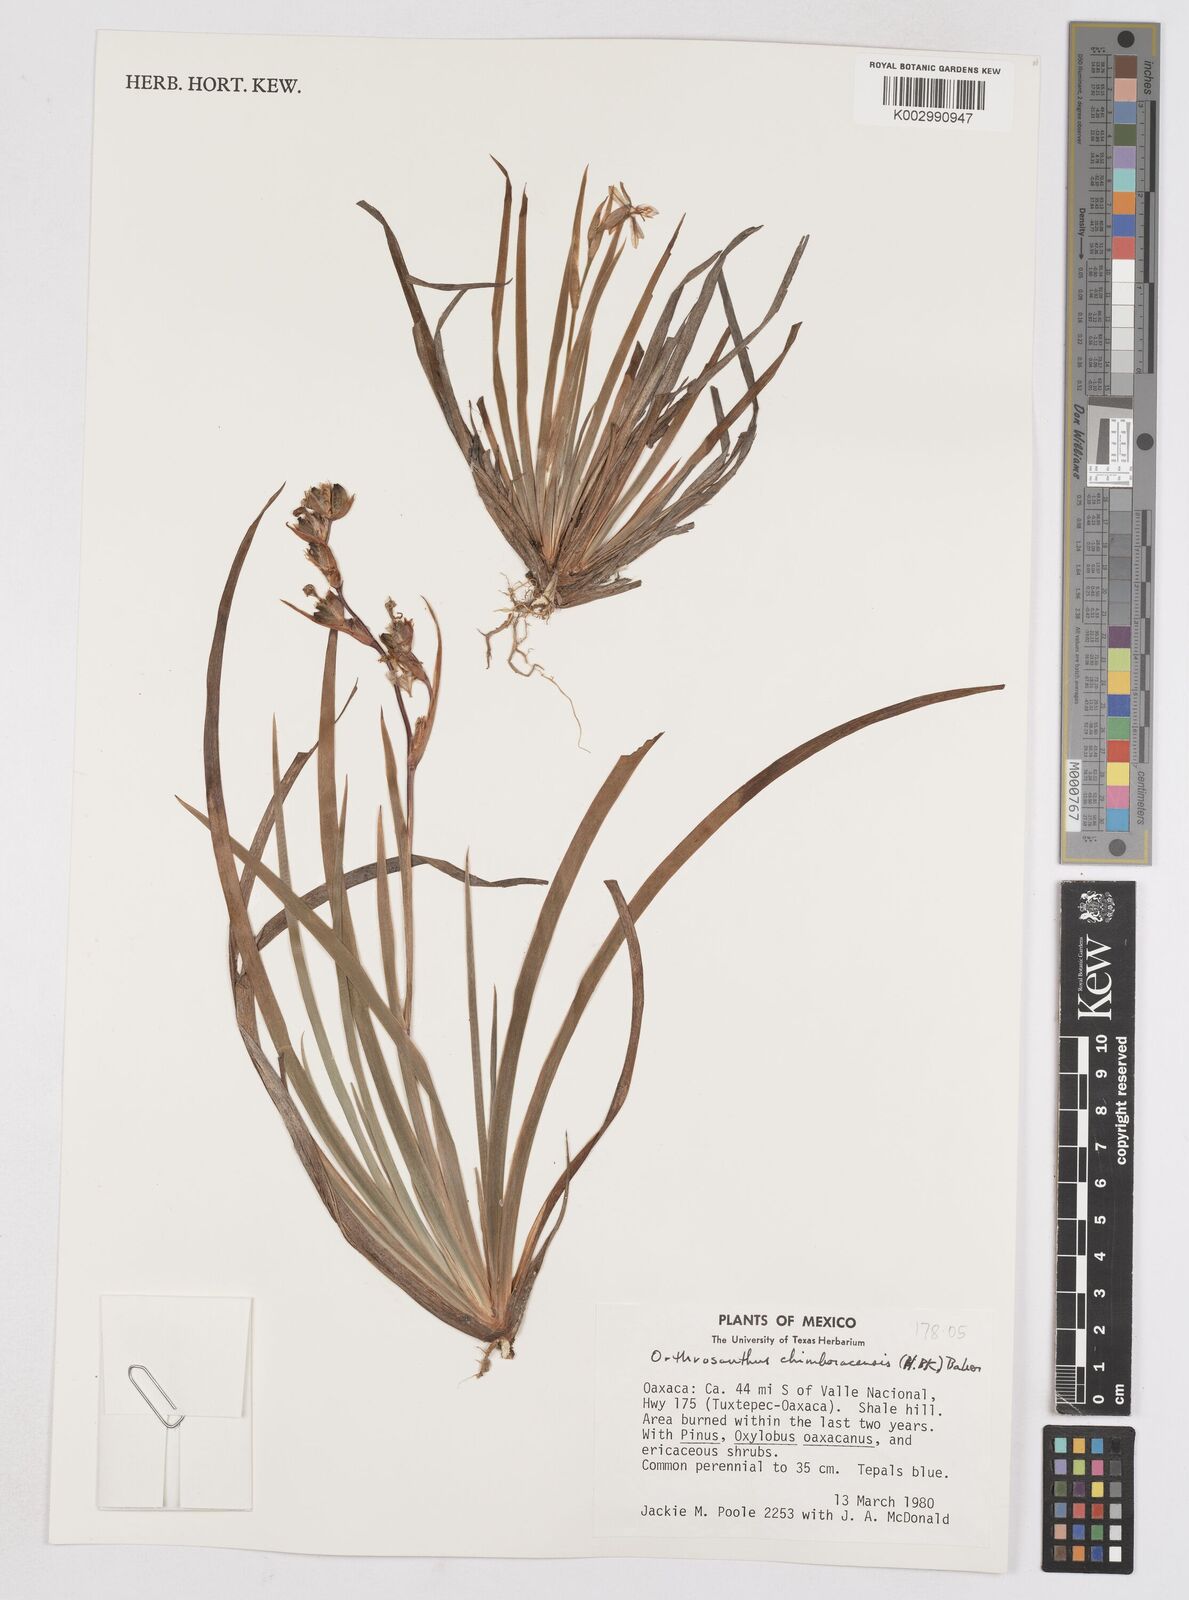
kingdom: Plantae
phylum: Tracheophyta
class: Liliopsida
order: Asparagales
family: Iridaceae
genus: Orthrosanthus
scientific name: Orthrosanthus chimboracensis
